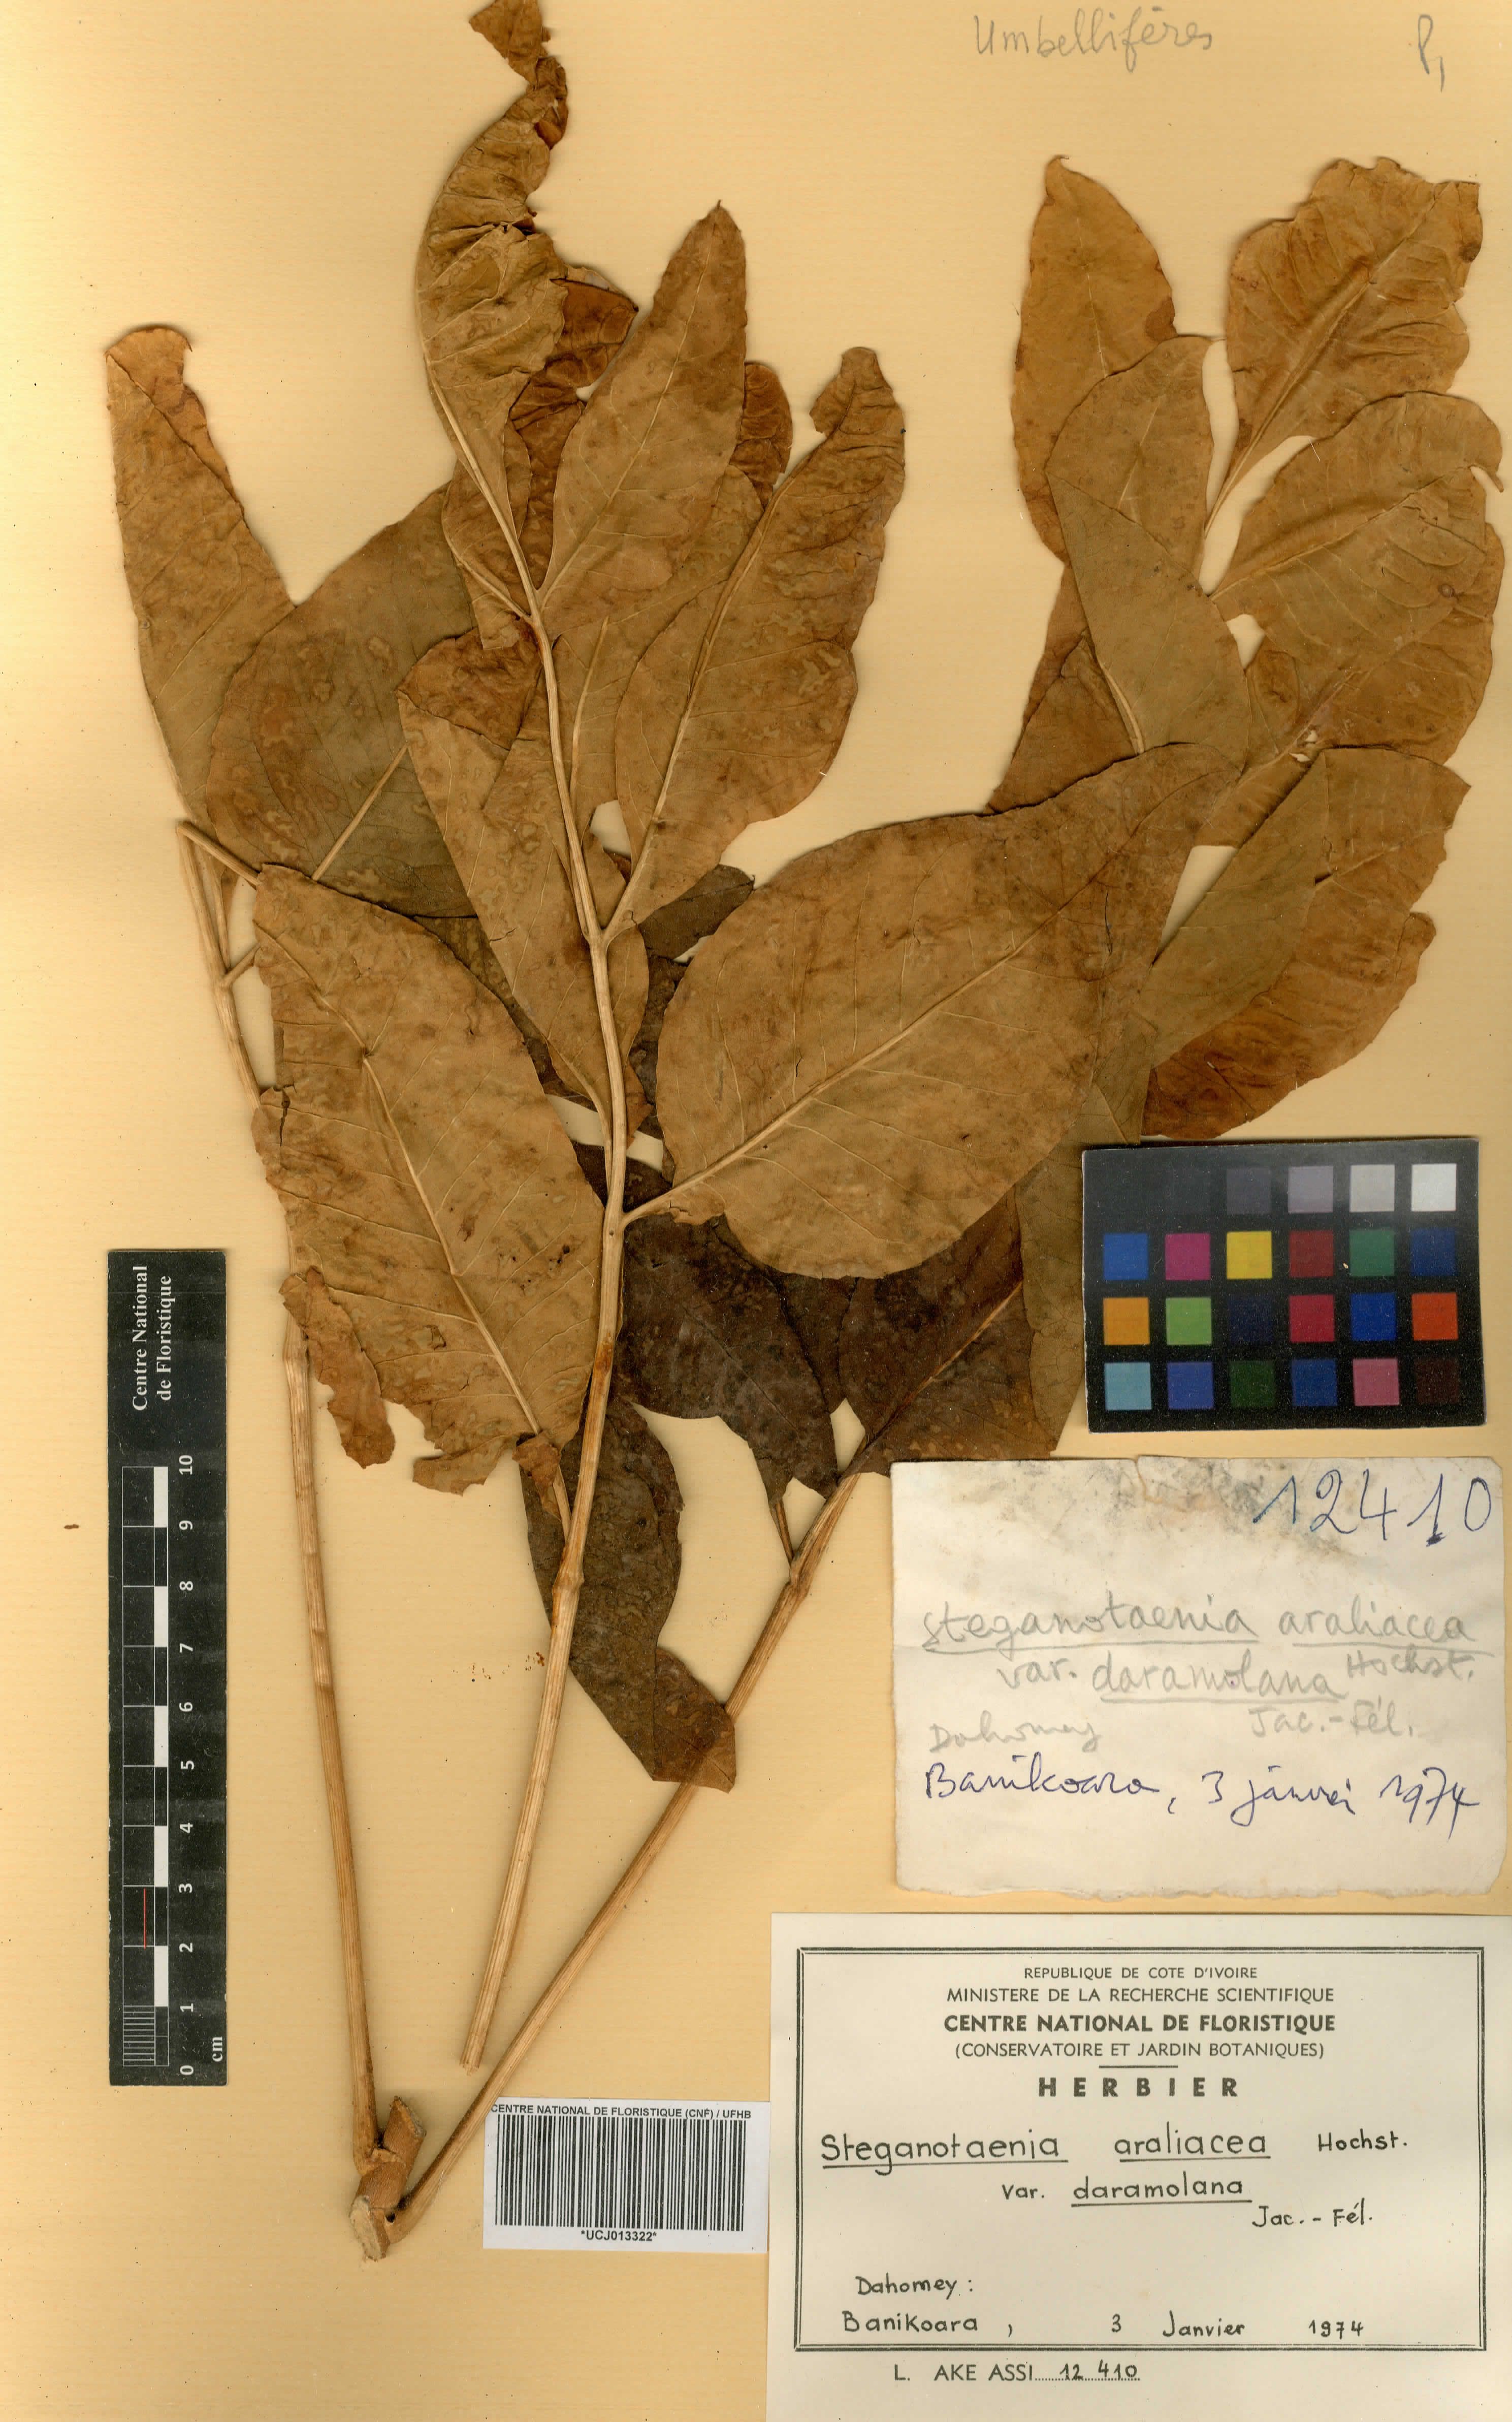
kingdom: Plantae
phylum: Tracheophyta
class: Magnoliopsida
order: Apiales
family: Apiaceae
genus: Steganotaenia
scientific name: Steganotaenia araliacea
